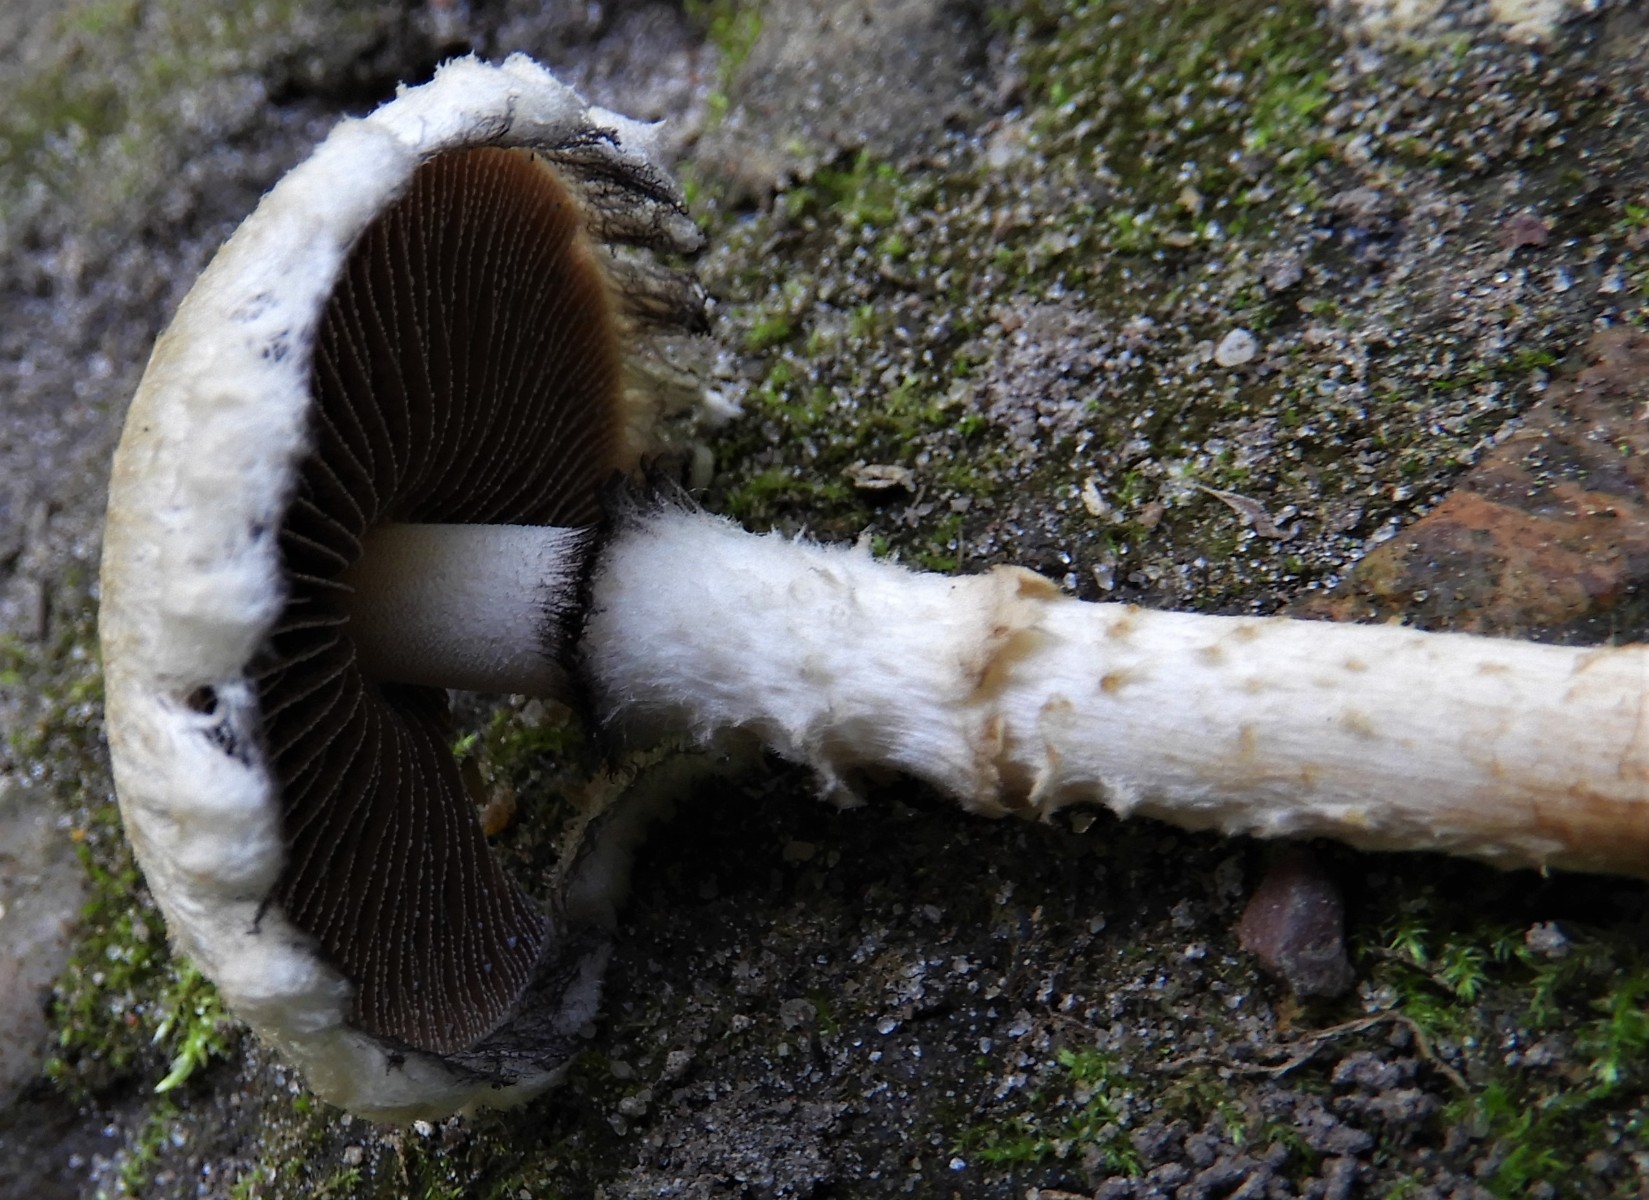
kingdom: Fungi
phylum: Basidiomycota
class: Agaricomycetes
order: Agaricales
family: Psathyrellaceae
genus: Lacrymaria
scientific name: Lacrymaria lacrymabunda
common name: grædende mørkhat
